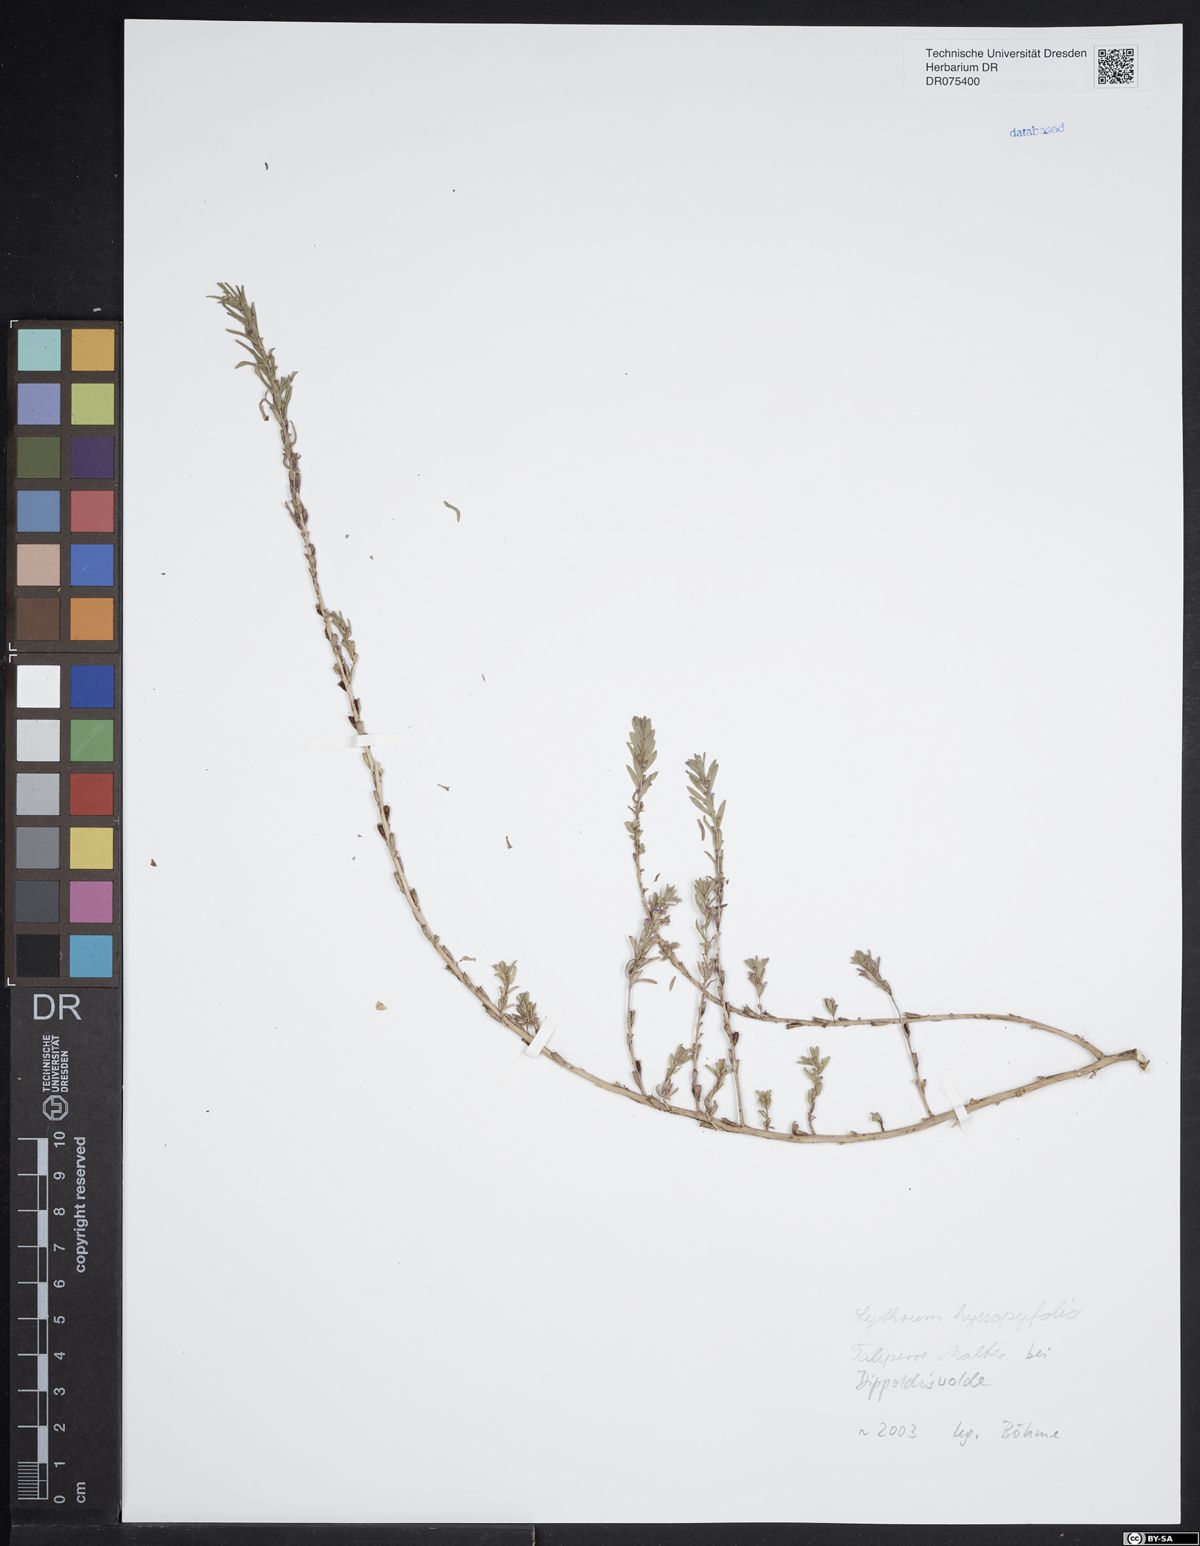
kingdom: Plantae
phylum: Tracheophyta
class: Magnoliopsida
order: Myrtales
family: Lythraceae
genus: Lythrum
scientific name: Lythrum hyssopifolia
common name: Grass-poly
